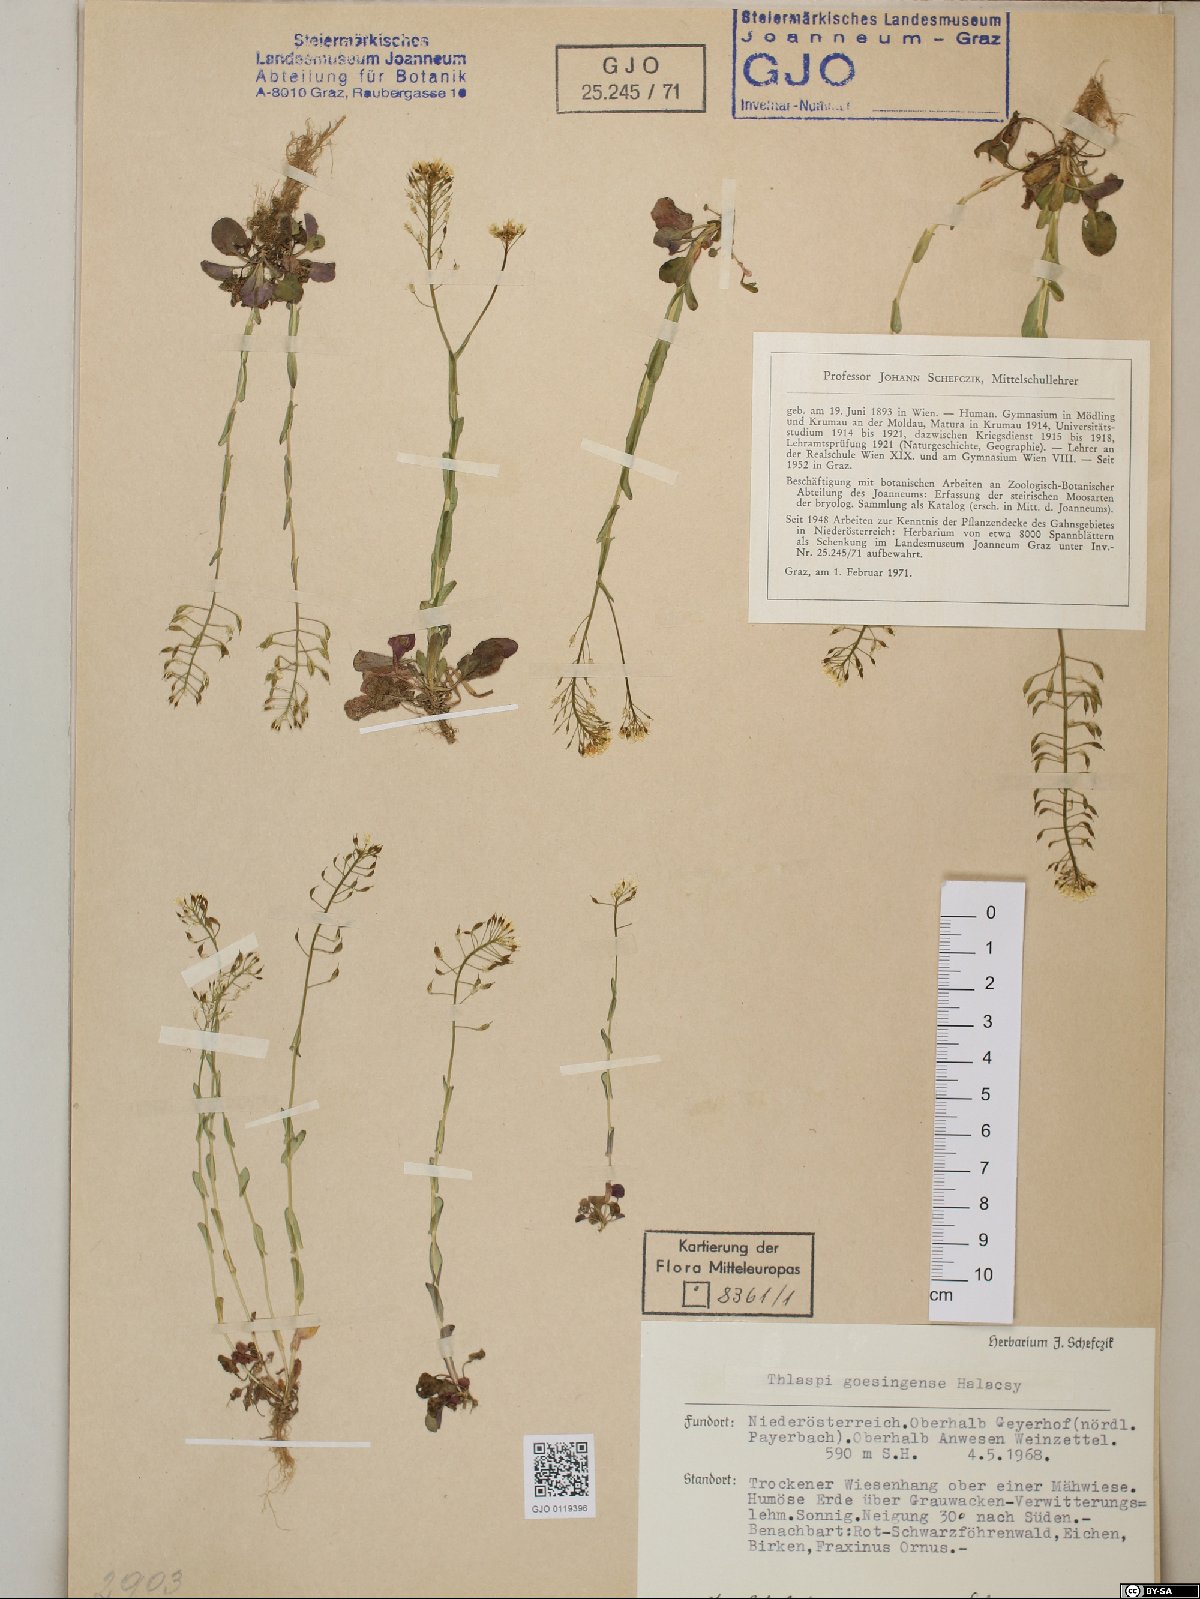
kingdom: Plantae
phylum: Tracheophyta
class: Magnoliopsida
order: Brassicales
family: Brassicaceae
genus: Noccaea
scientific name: Noccaea goesingensis
